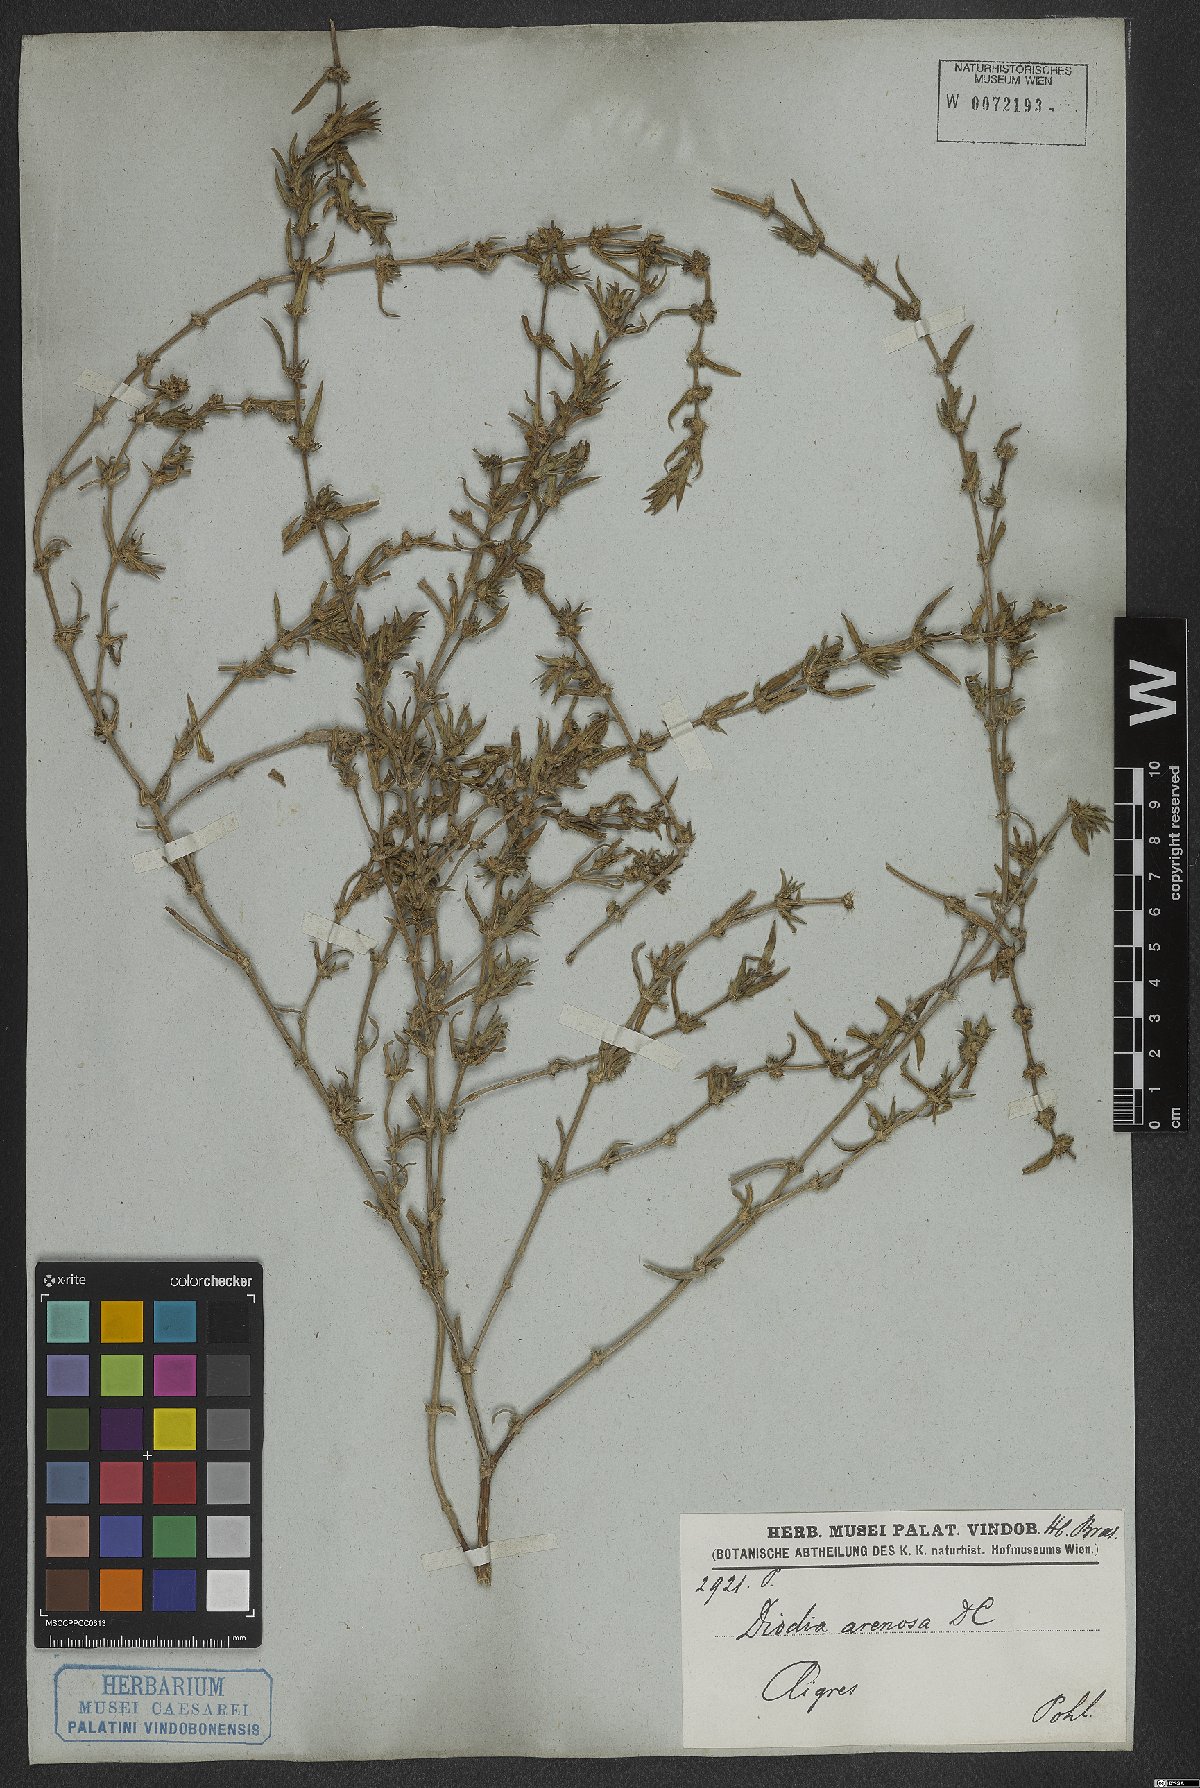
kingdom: Plantae
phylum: Tracheophyta
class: Magnoliopsida
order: Gentianales
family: Rubiaceae
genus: Hexasepalum
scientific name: Hexasepalum apiculatum
